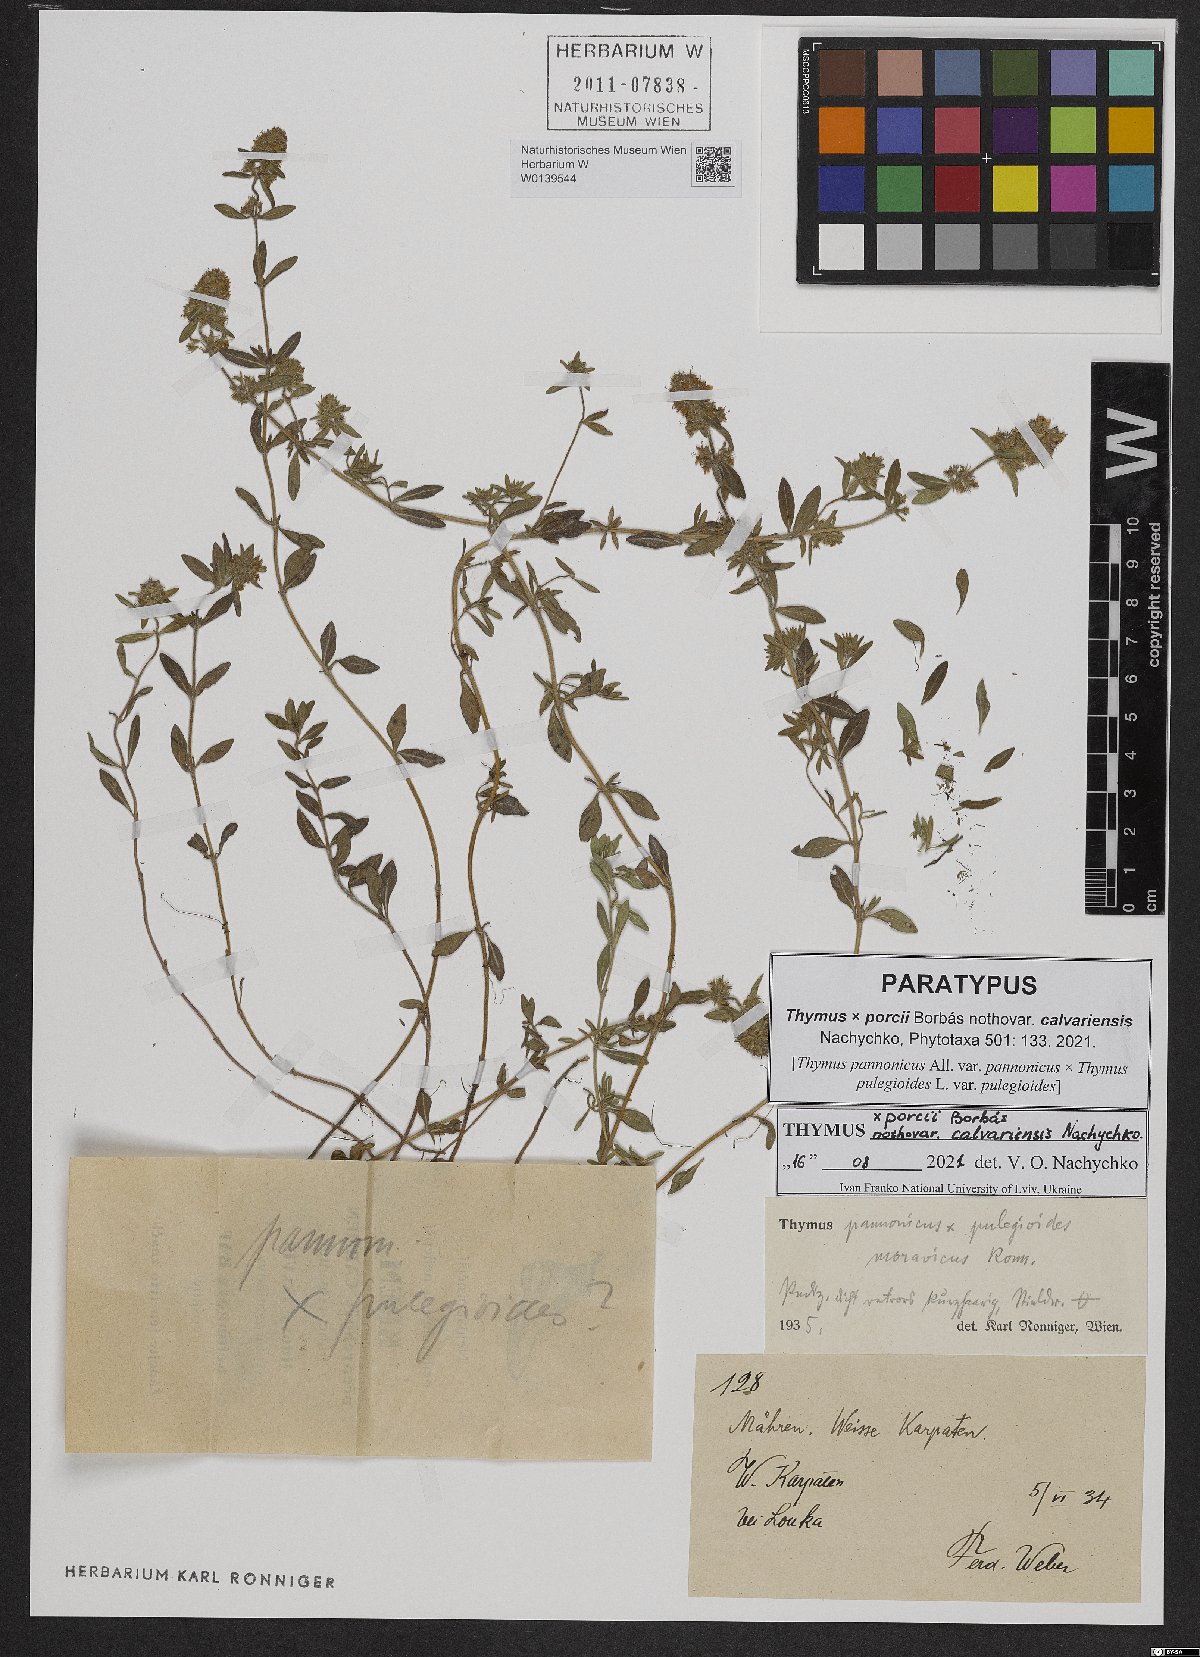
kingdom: Plantae
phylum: Tracheophyta
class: Magnoliopsida
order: Lamiales
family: Lamiaceae
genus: Thymus
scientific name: Thymus porcii
